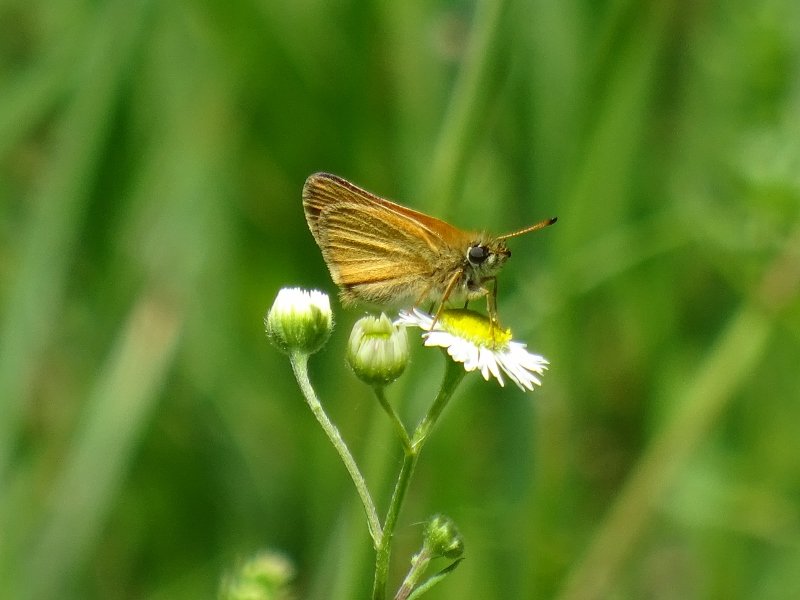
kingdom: Animalia
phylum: Arthropoda
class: Insecta
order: Lepidoptera
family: Hesperiidae
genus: Thymelicus
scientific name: Thymelicus lineola
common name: European Skipper
